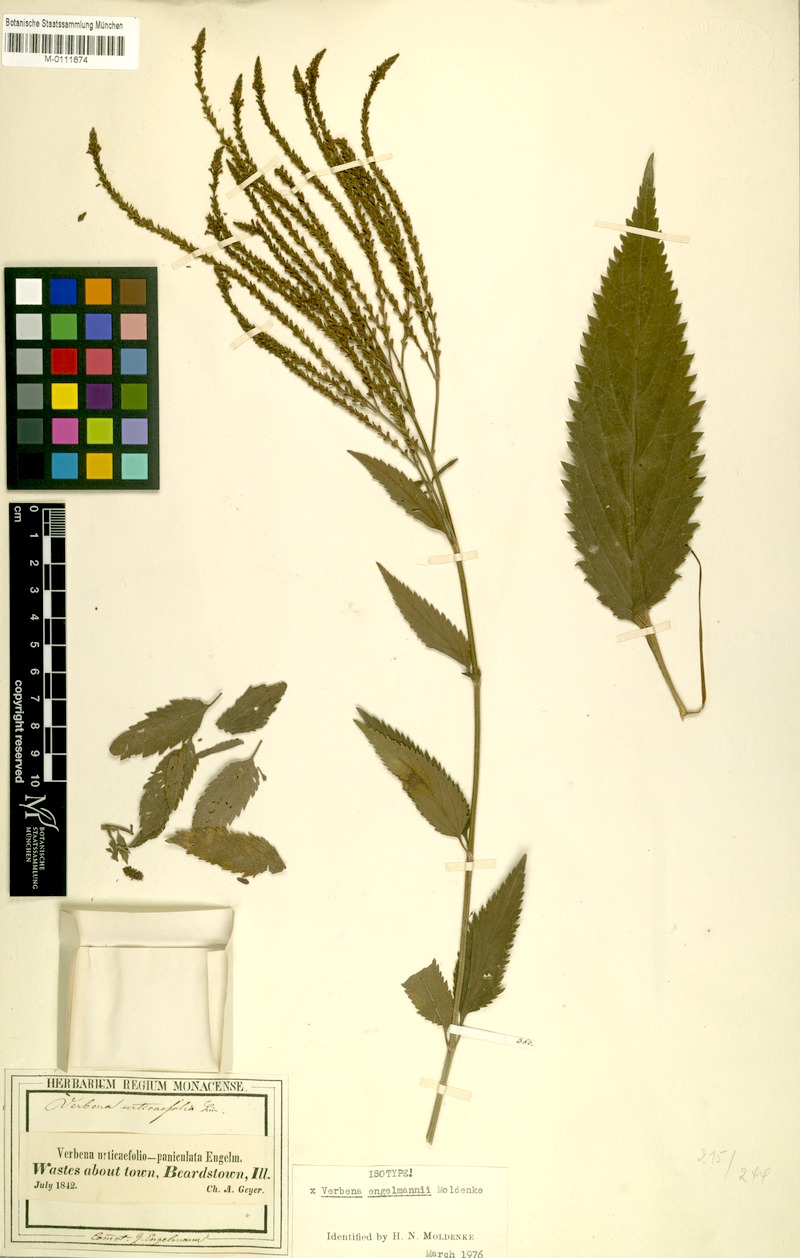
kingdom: Plantae
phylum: Tracheophyta
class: Magnoliopsida
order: Lamiales
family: Verbenaceae
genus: Verbena
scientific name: Verbena engelmannii
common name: Engelmann's vervain
